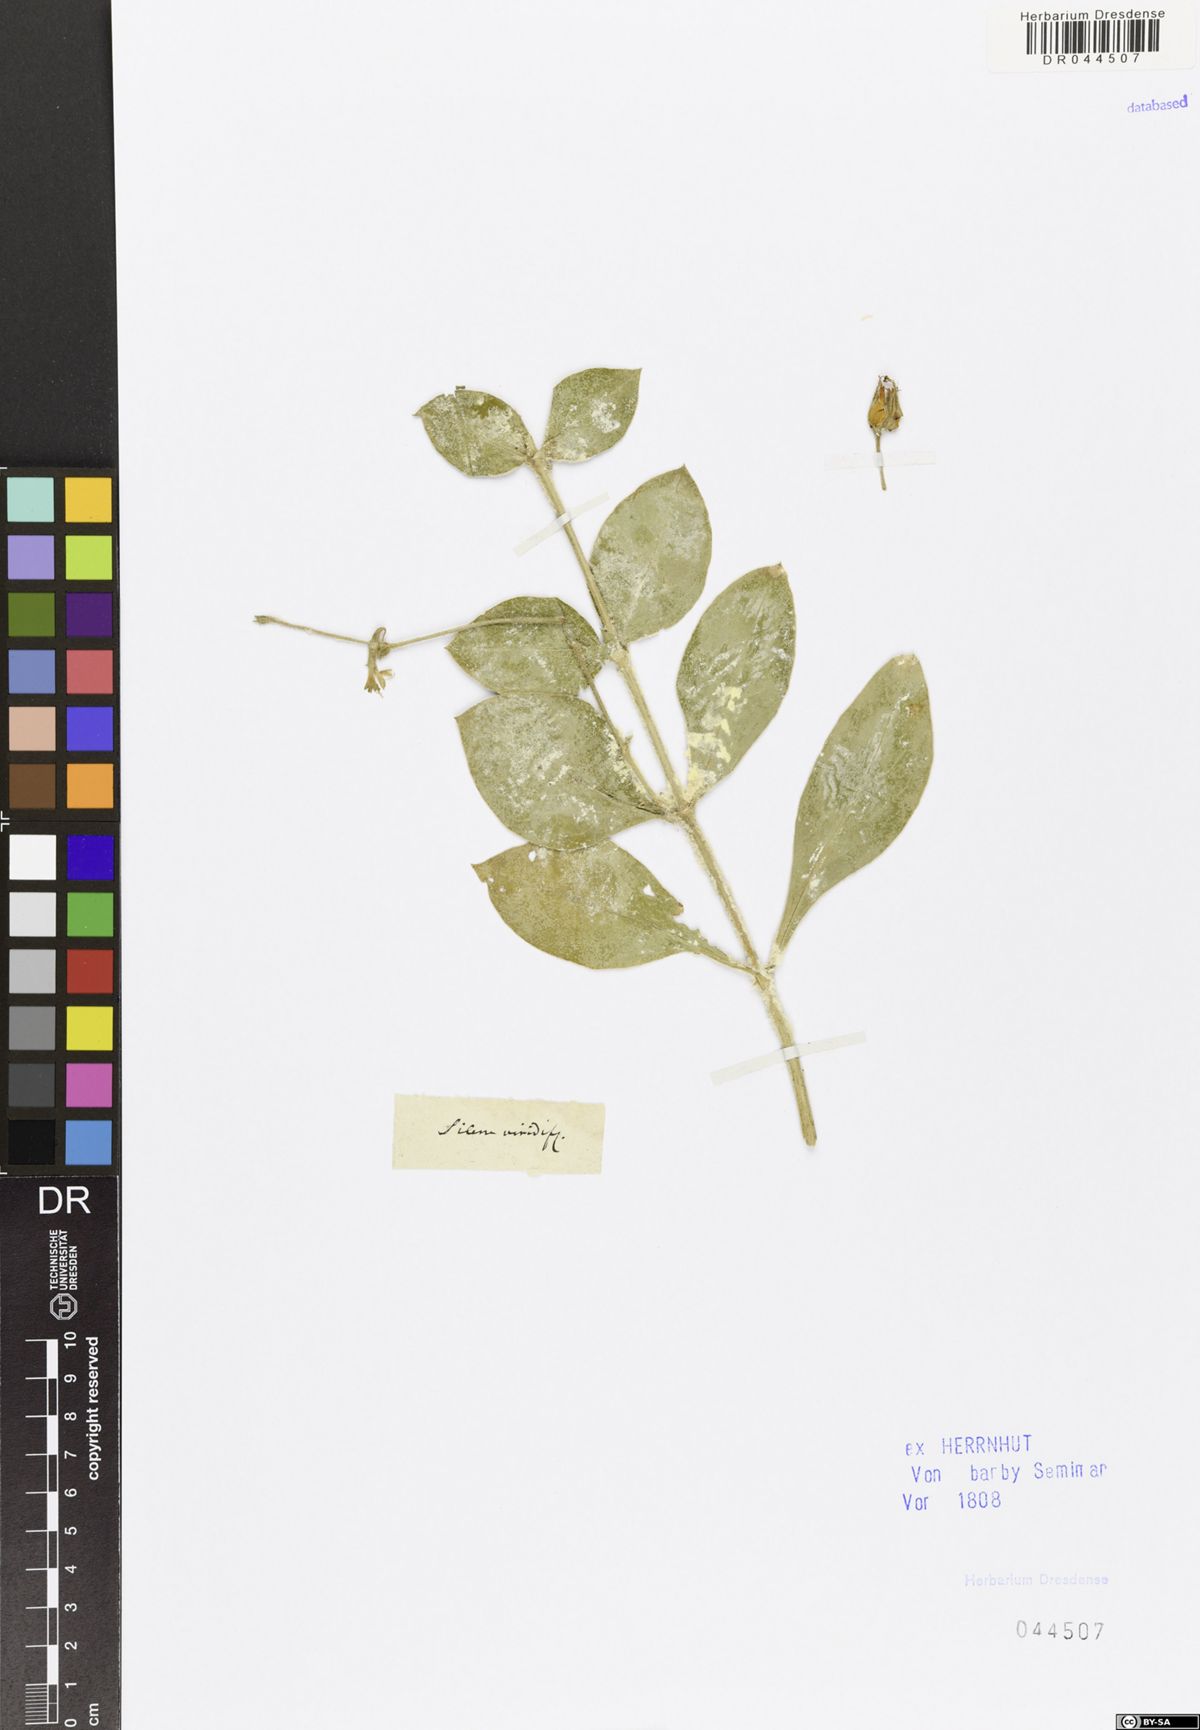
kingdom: Plantae
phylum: Tracheophyta
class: Magnoliopsida
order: Caryophyllales
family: Caryophyllaceae
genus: Silene
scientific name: Silene viridiflora
